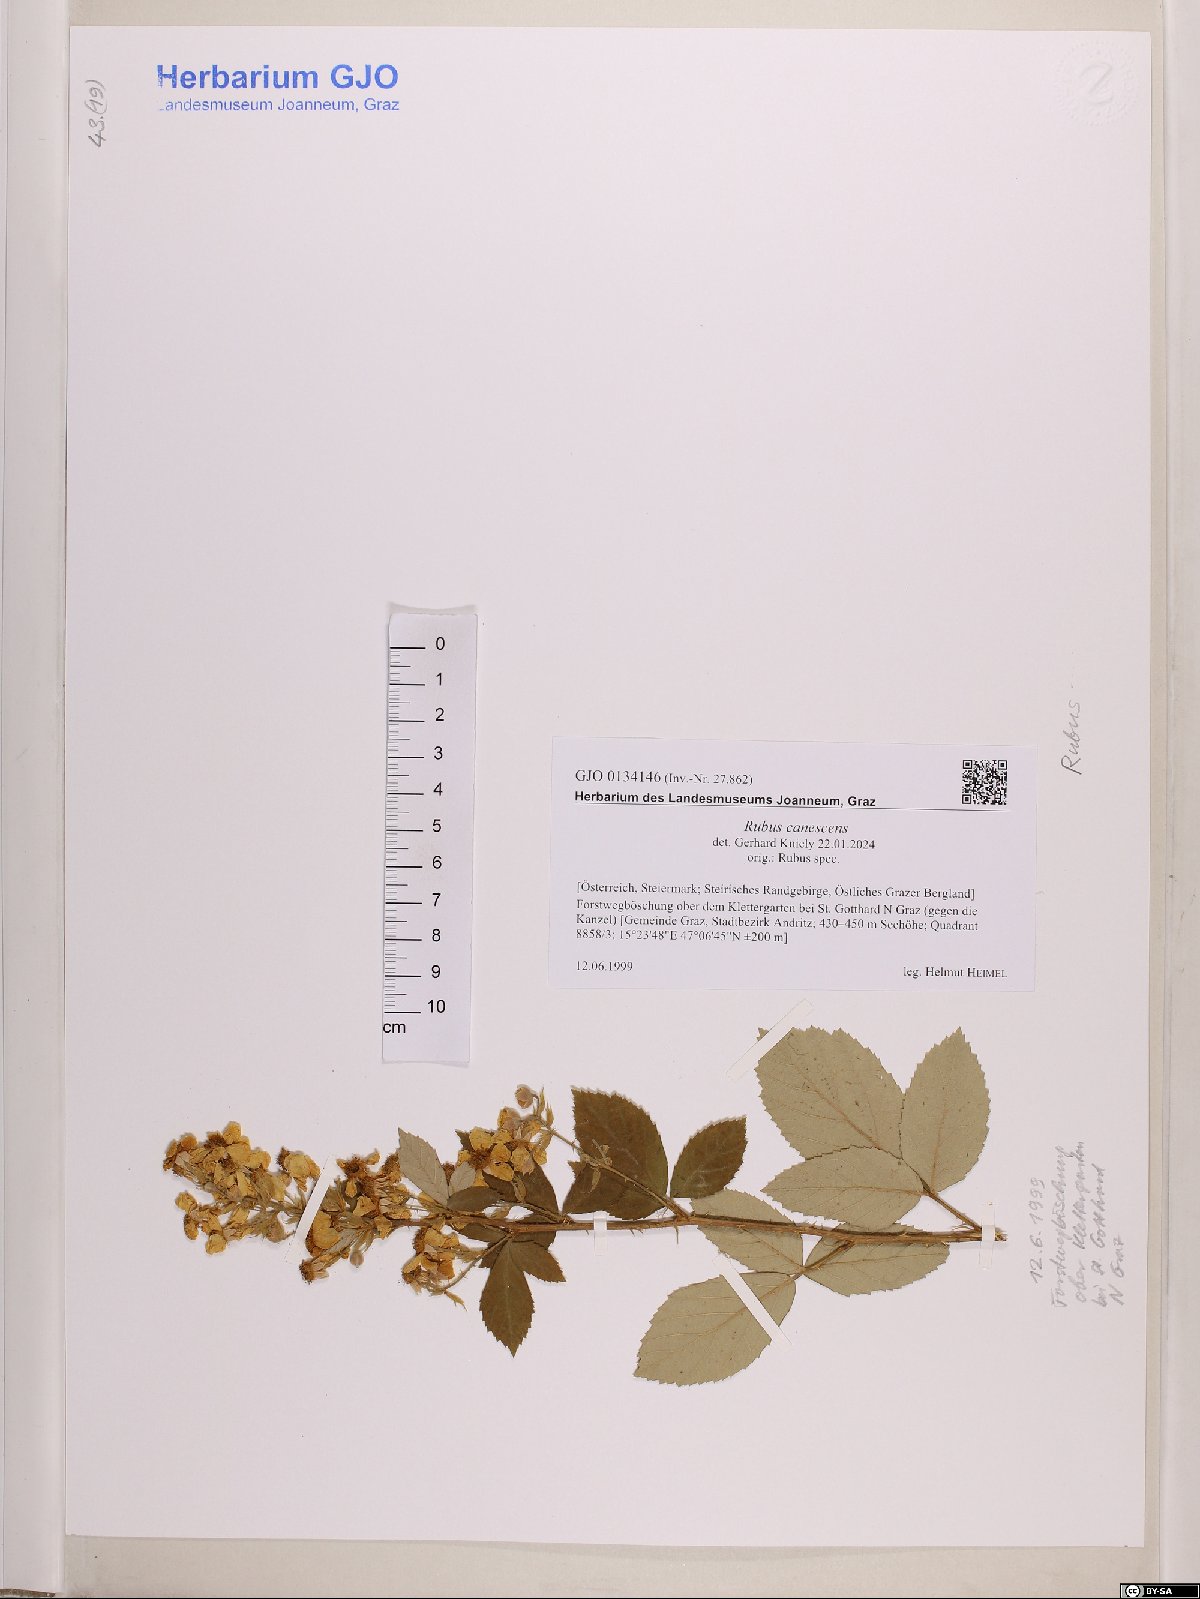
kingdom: Plantae
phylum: Tracheophyta
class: Magnoliopsida
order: Rosales
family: Rosaceae
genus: Rubus
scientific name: Rubus canescens
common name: Wooly blackberry
